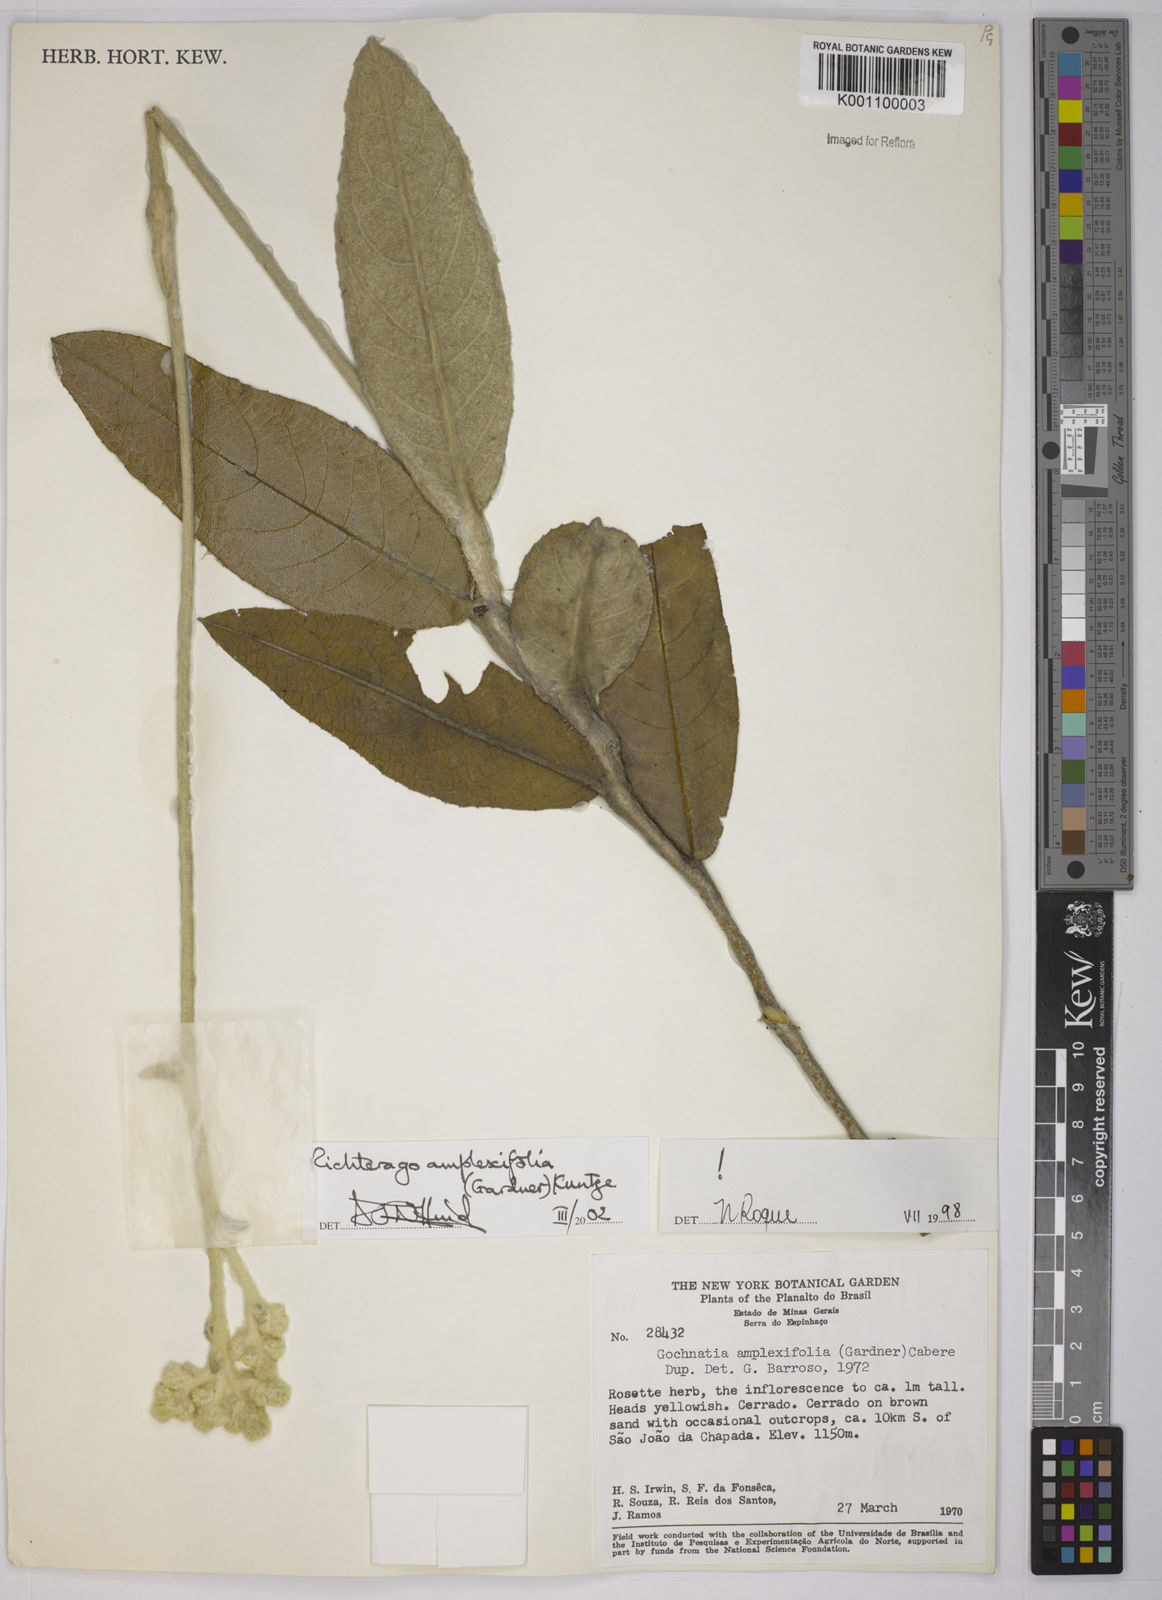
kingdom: Plantae
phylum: Tracheophyta
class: Magnoliopsida
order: Asterales
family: Asteraceae
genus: Richterago
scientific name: Richterago amplexifolia
